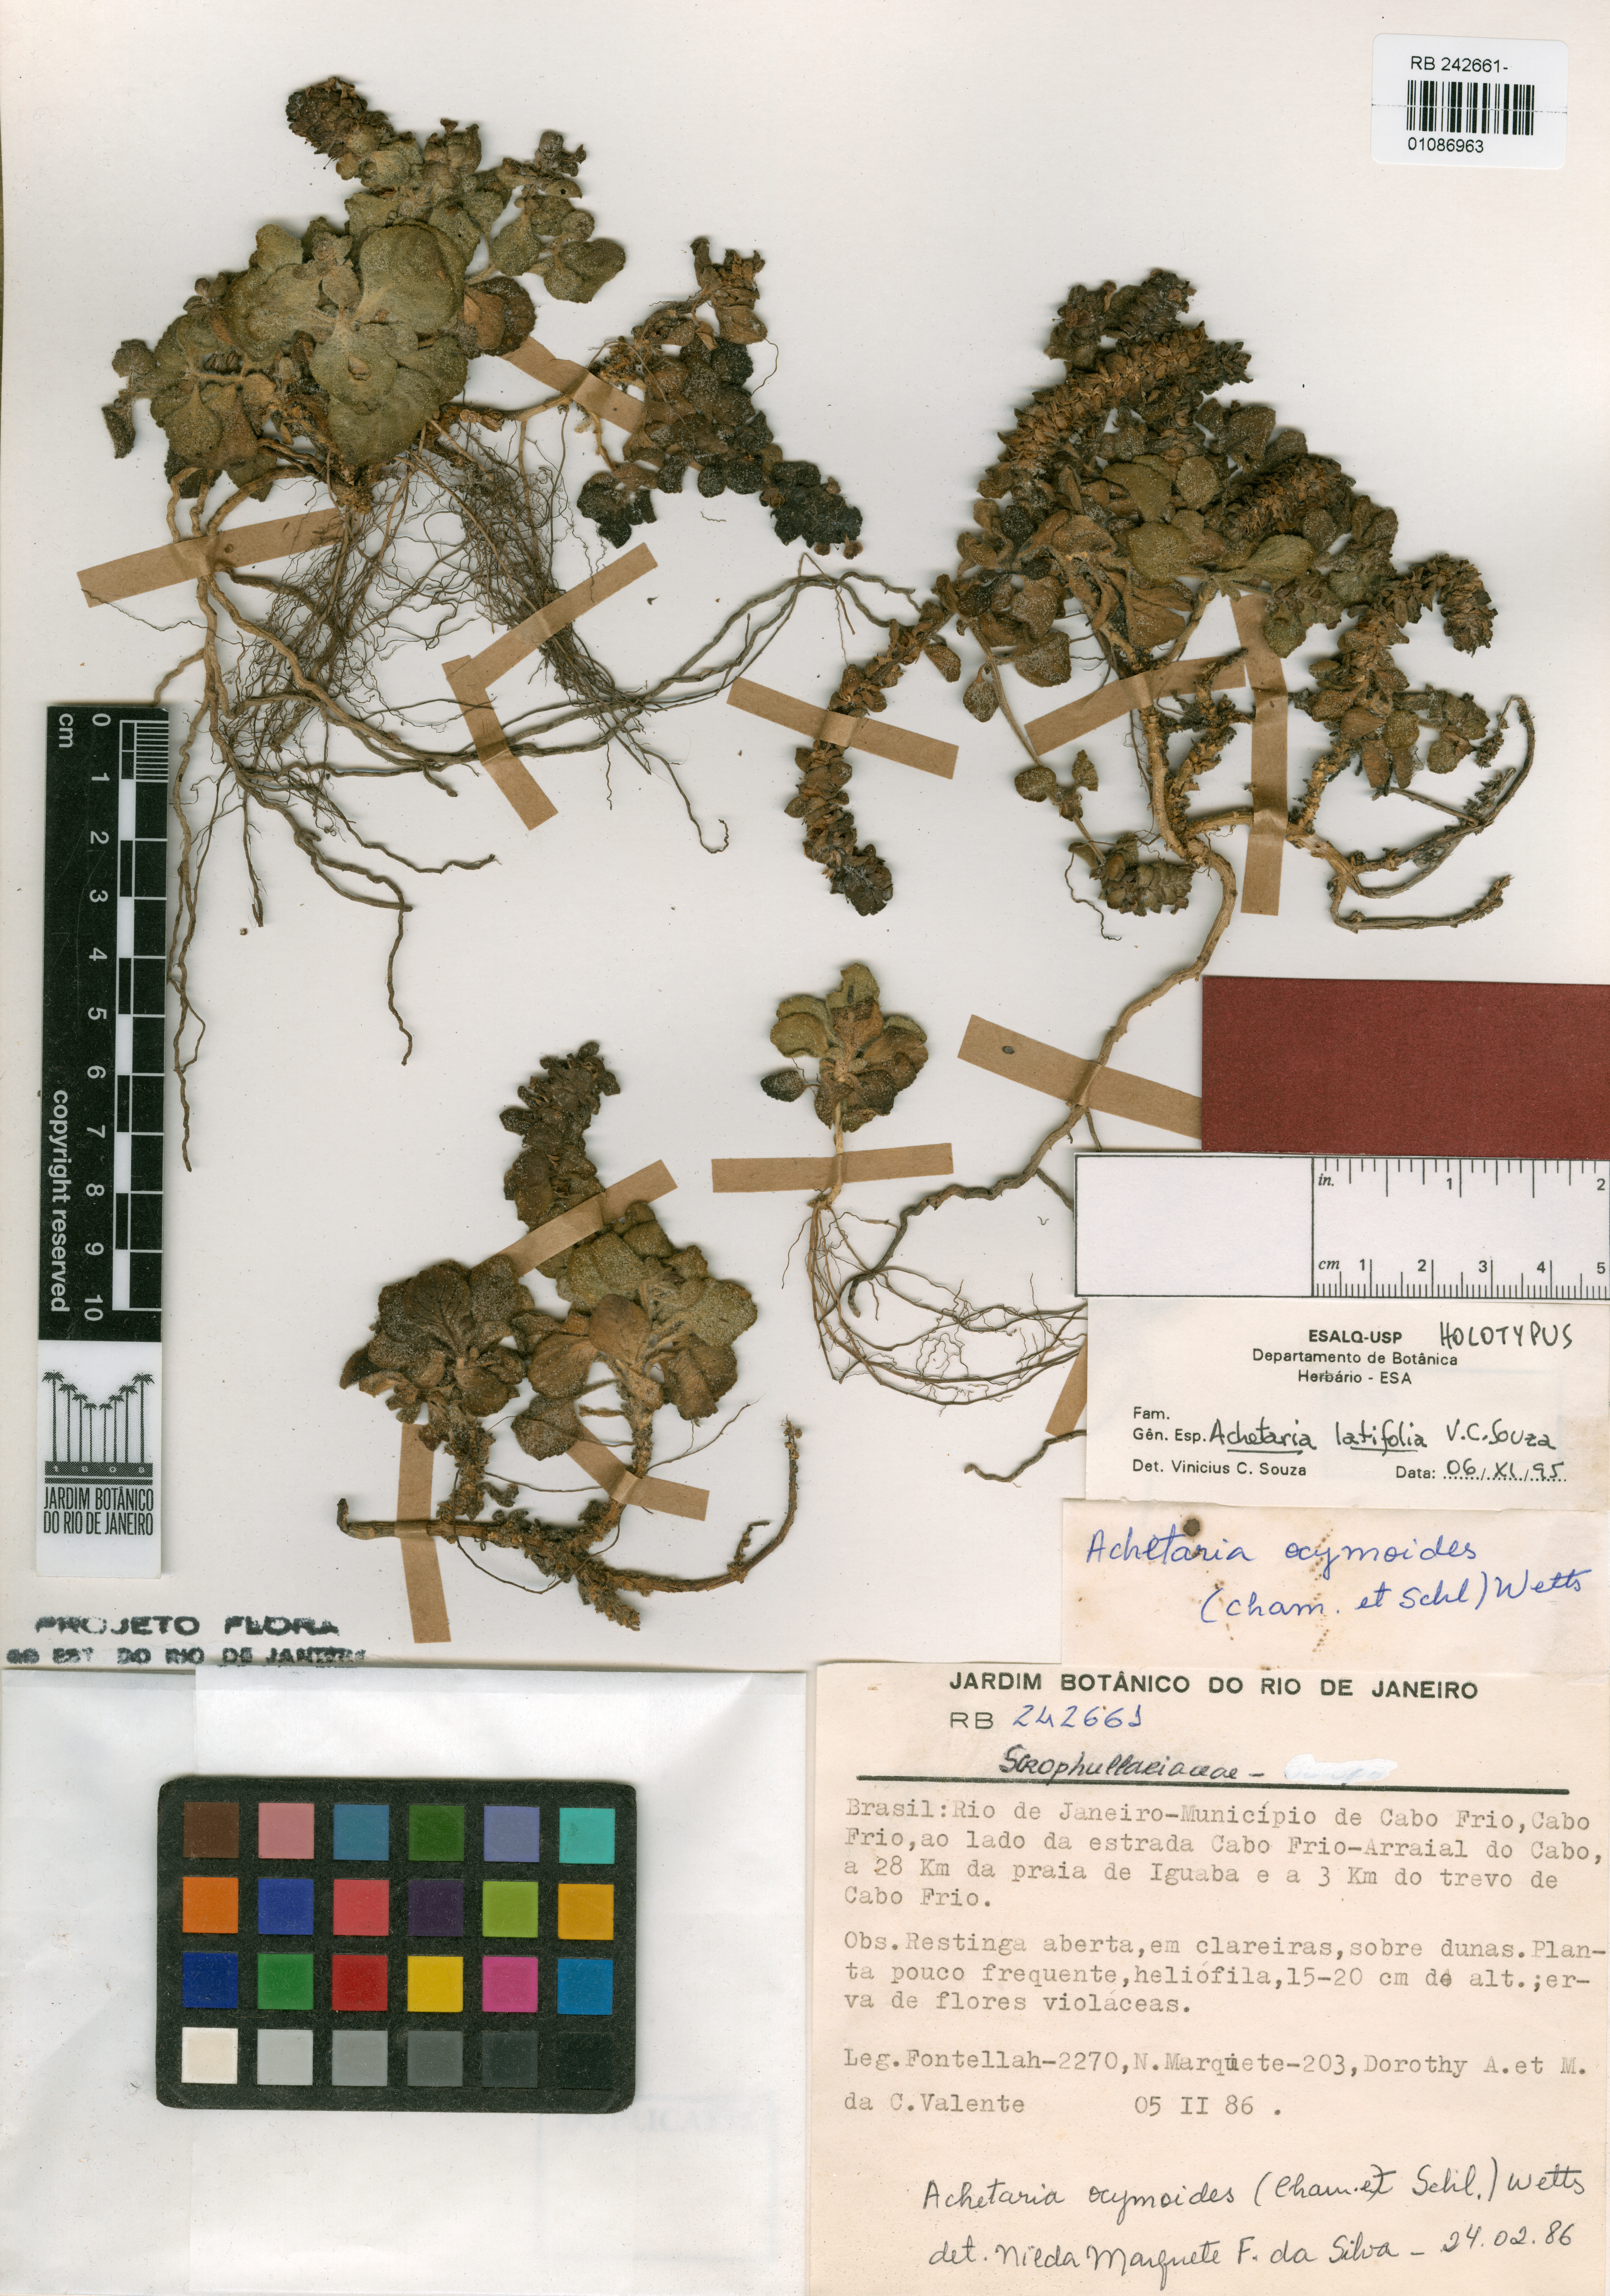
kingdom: Plantae
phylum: Tracheophyta
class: Magnoliopsida
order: Lamiales
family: Plantaginaceae
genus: Matourea
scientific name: Matourea latifolia
